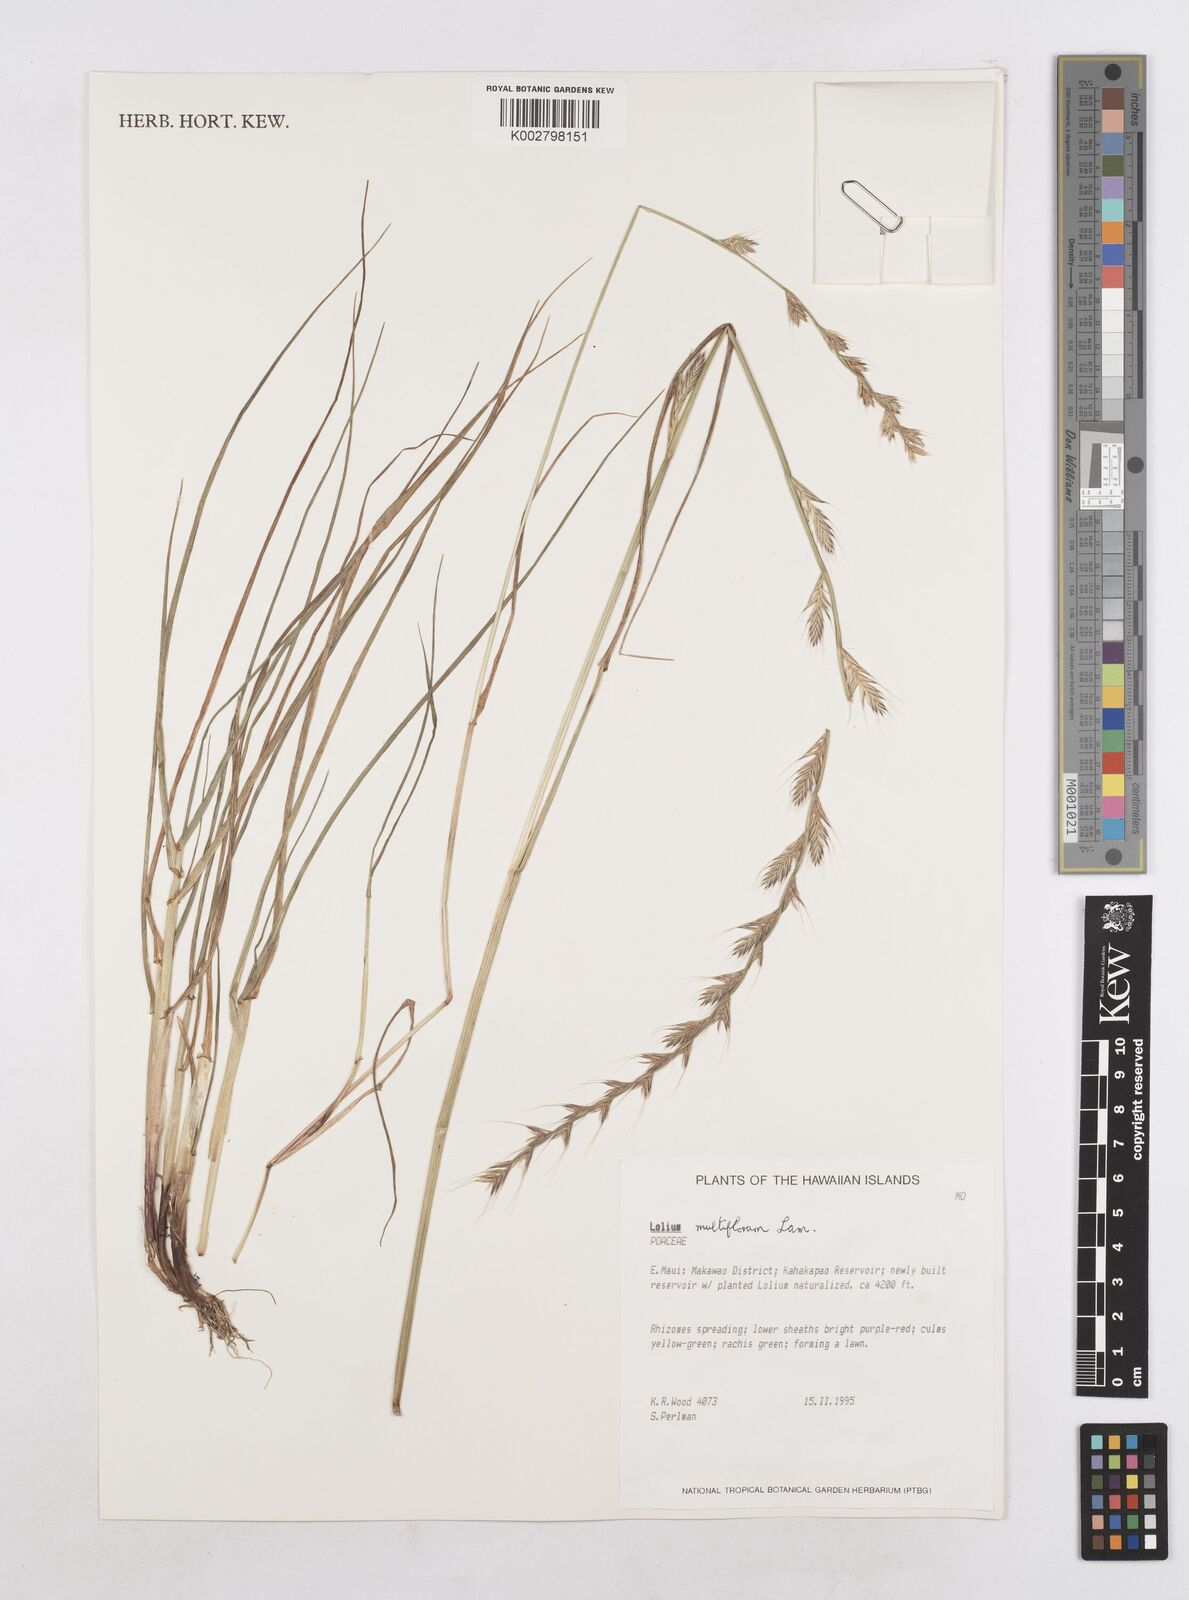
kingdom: Plantae
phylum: Tracheophyta
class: Liliopsida
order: Poales
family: Poaceae
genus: Lolium
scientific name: Lolium multiflorum
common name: Annual ryegrass
